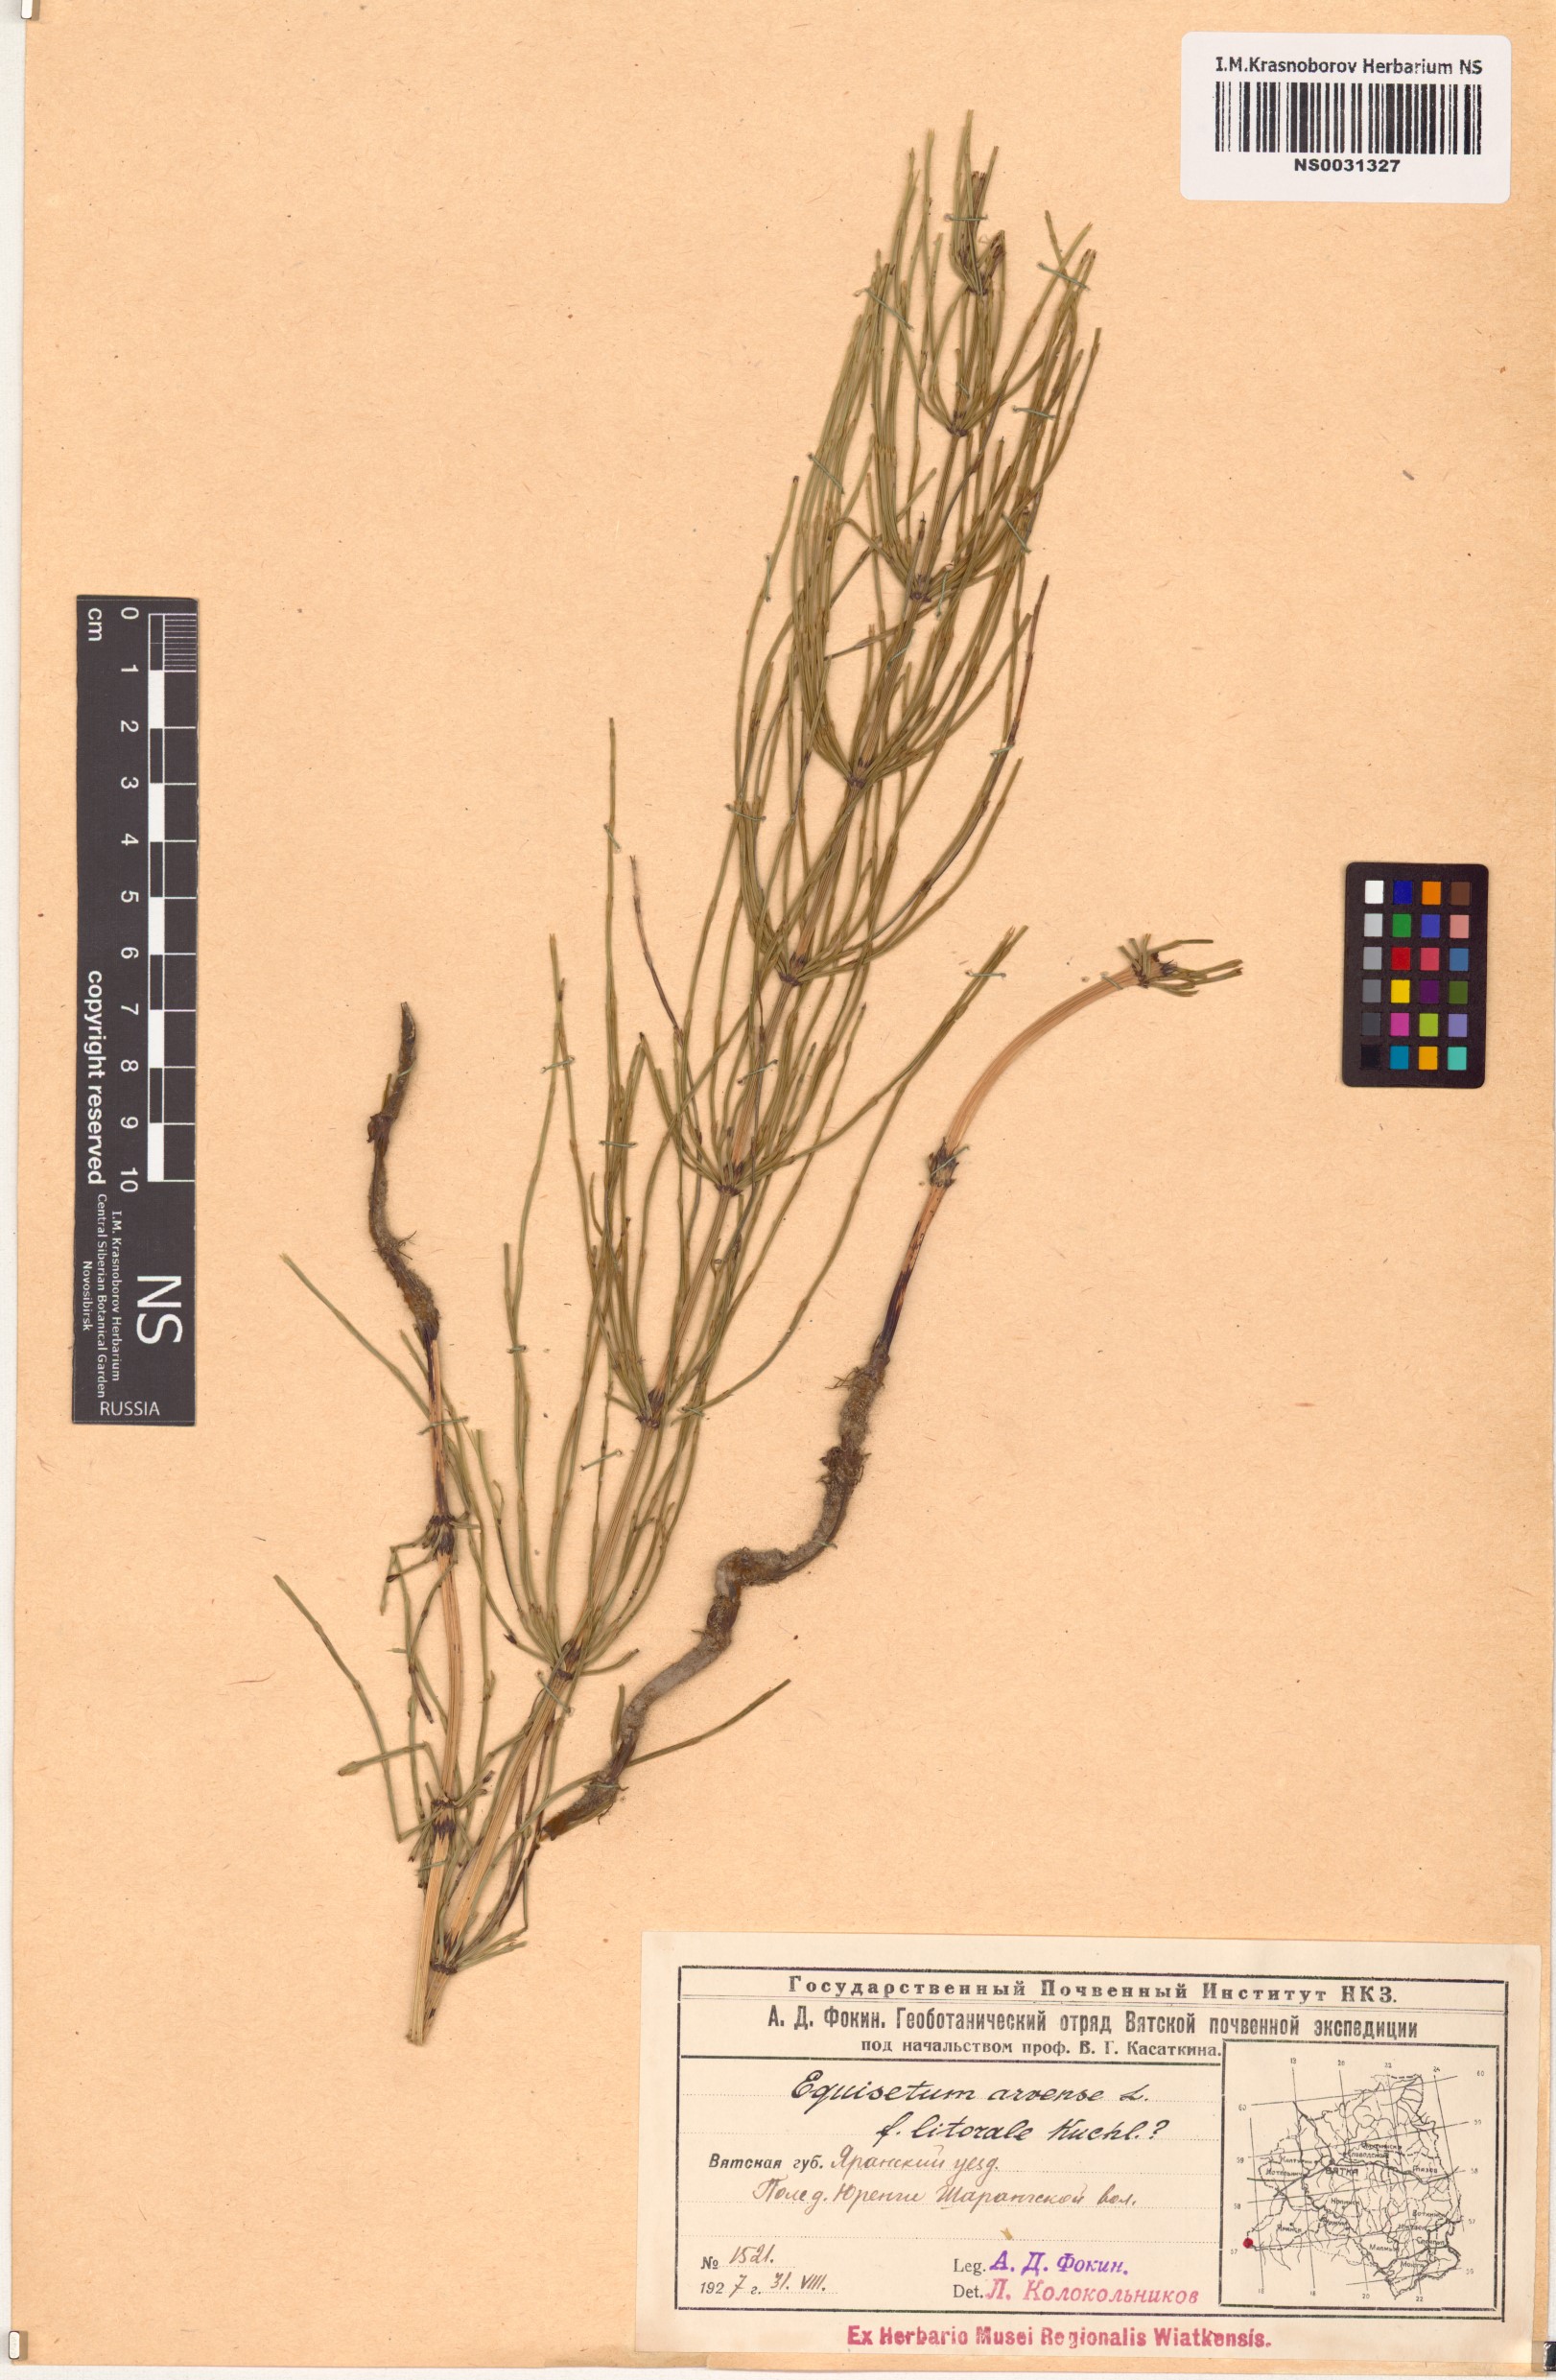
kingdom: Plantae
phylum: Tracheophyta
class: Polypodiopsida
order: Equisetales
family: Equisetaceae
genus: Equisetum
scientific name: Equisetum arvense
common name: Field horsetail
